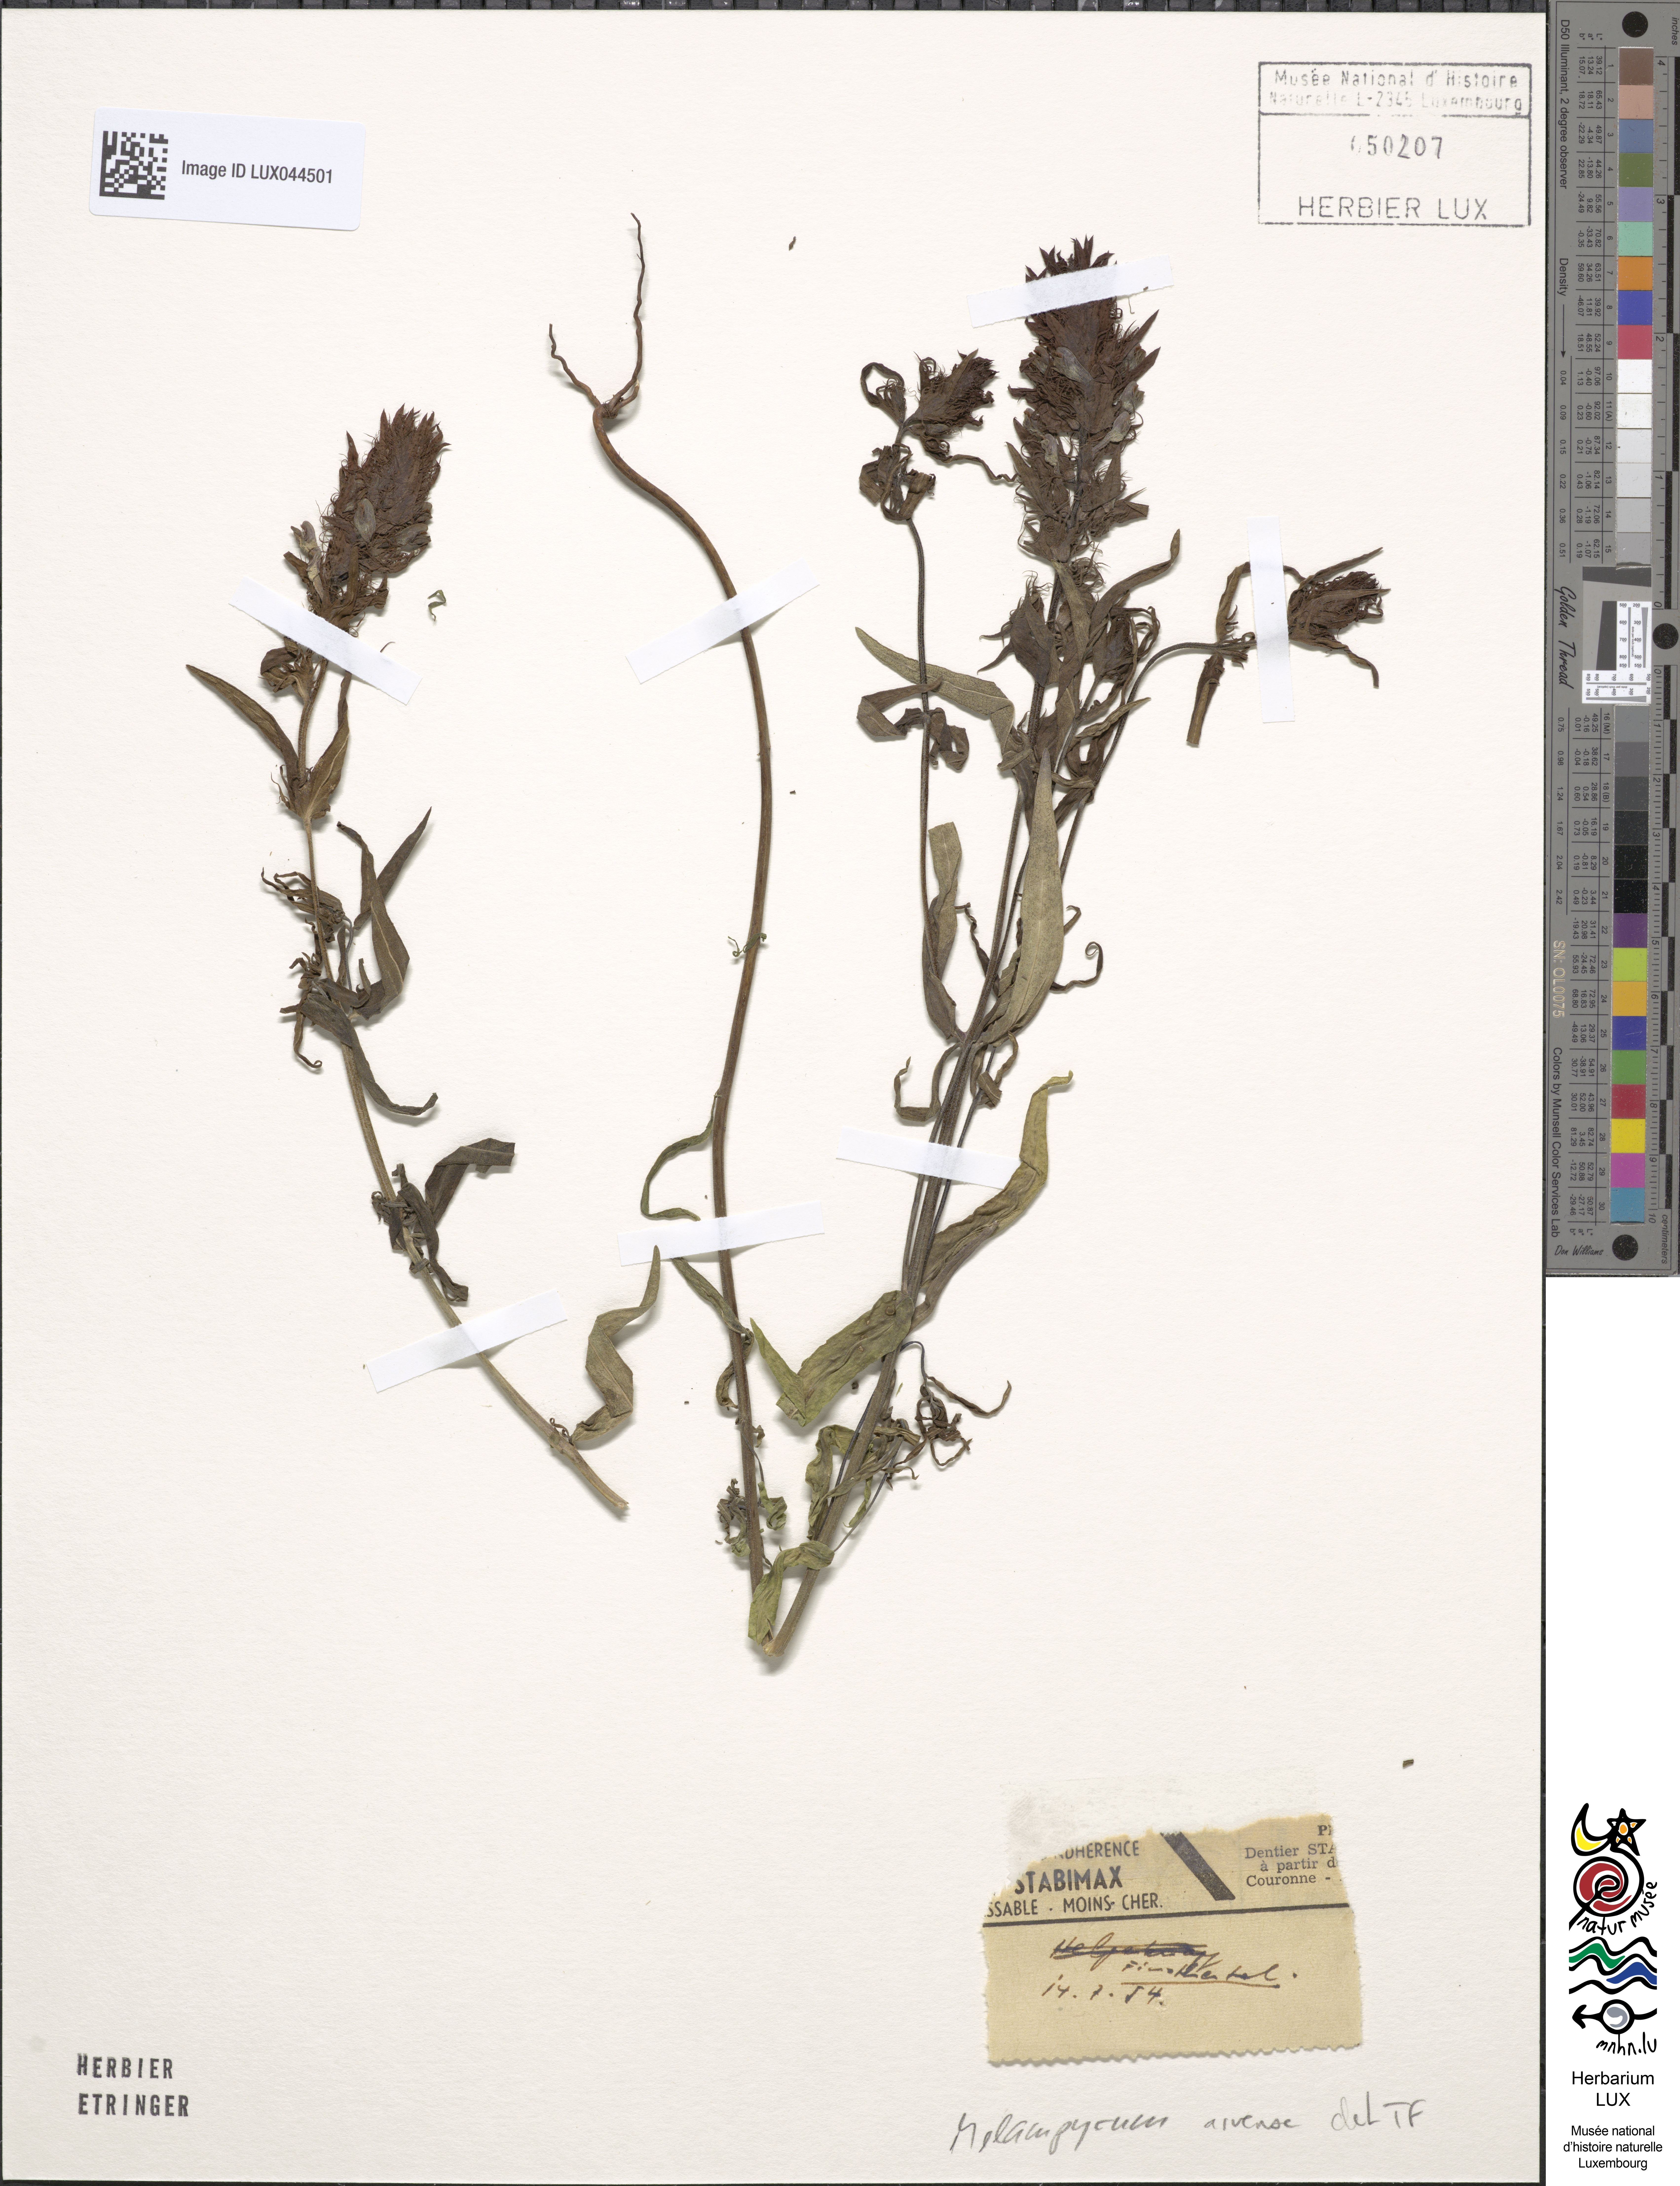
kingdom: Plantae
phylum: Tracheophyta
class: Magnoliopsida
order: Lamiales
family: Orobanchaceae
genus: Melampyrum
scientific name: Melampyrum arvense
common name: Field cow-wheat
